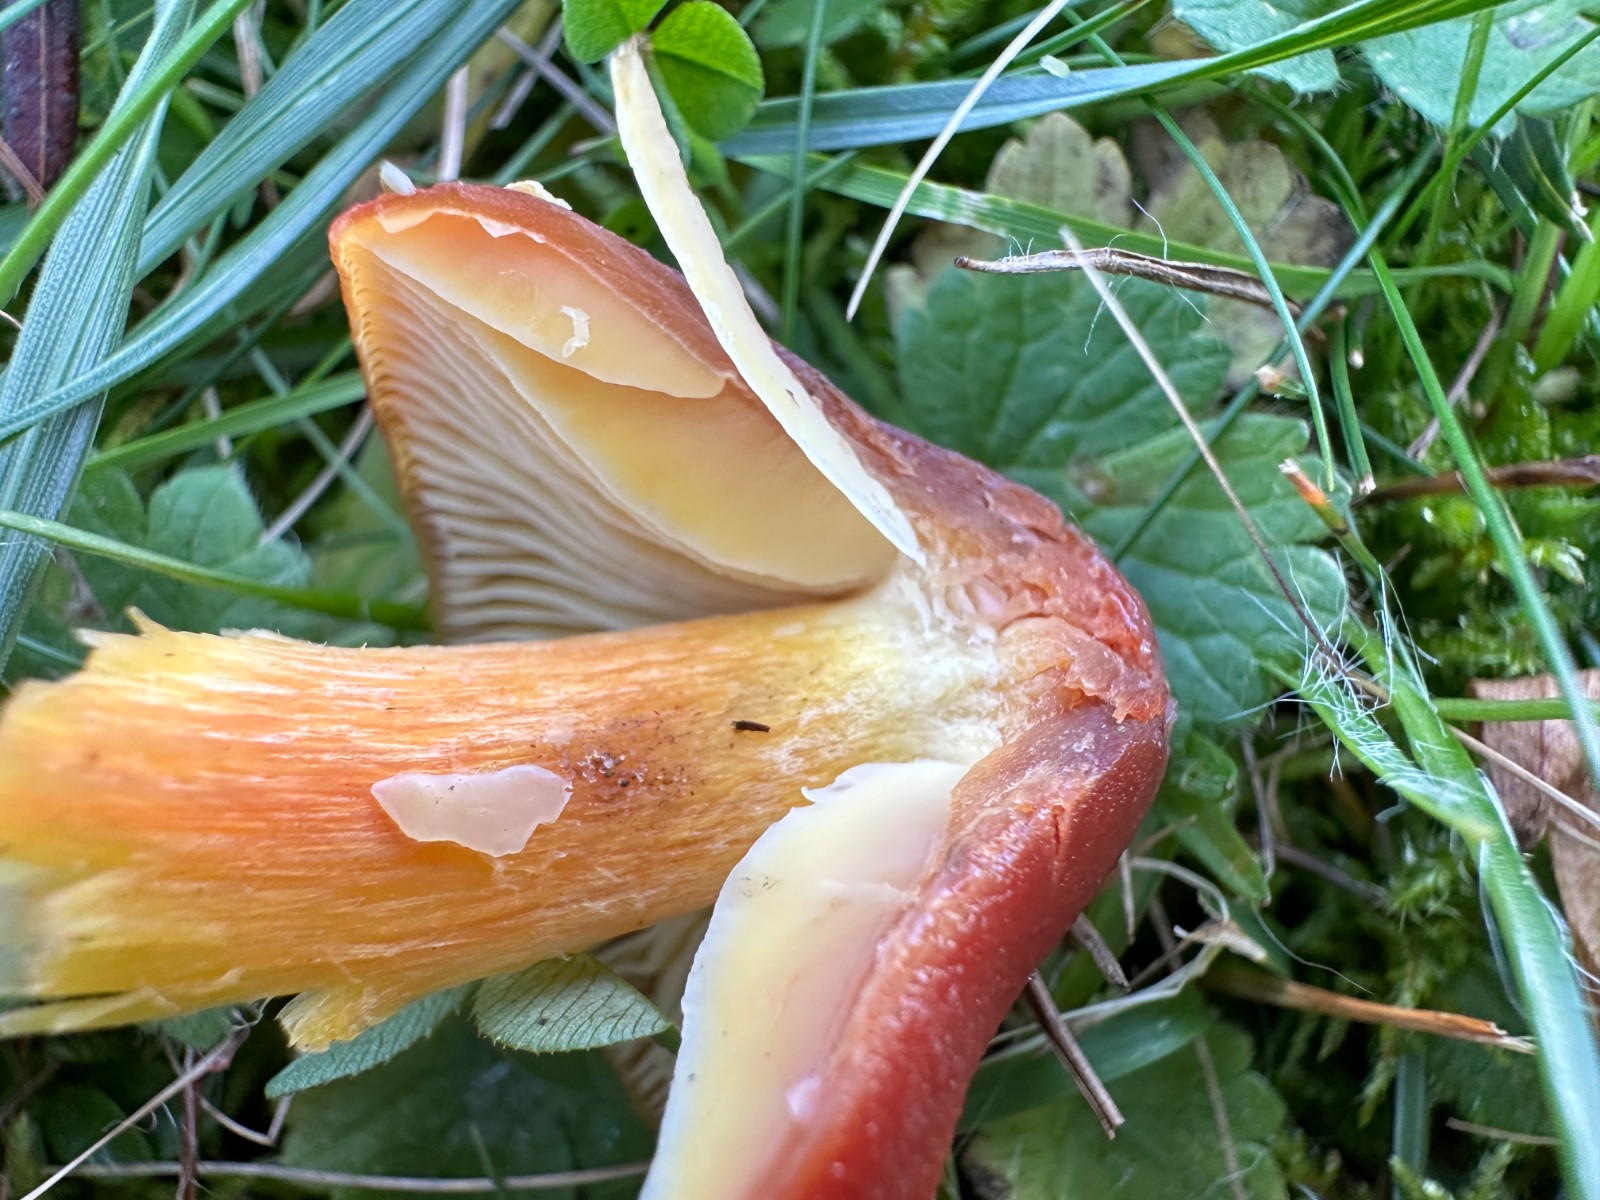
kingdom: Fungi
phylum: Basidiomycota
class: Agaricomycetes
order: Agaricales
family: Hygrophoraceae
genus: Hygrocybe
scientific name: Hygrocybe punicea
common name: skarlagen-vokshat
